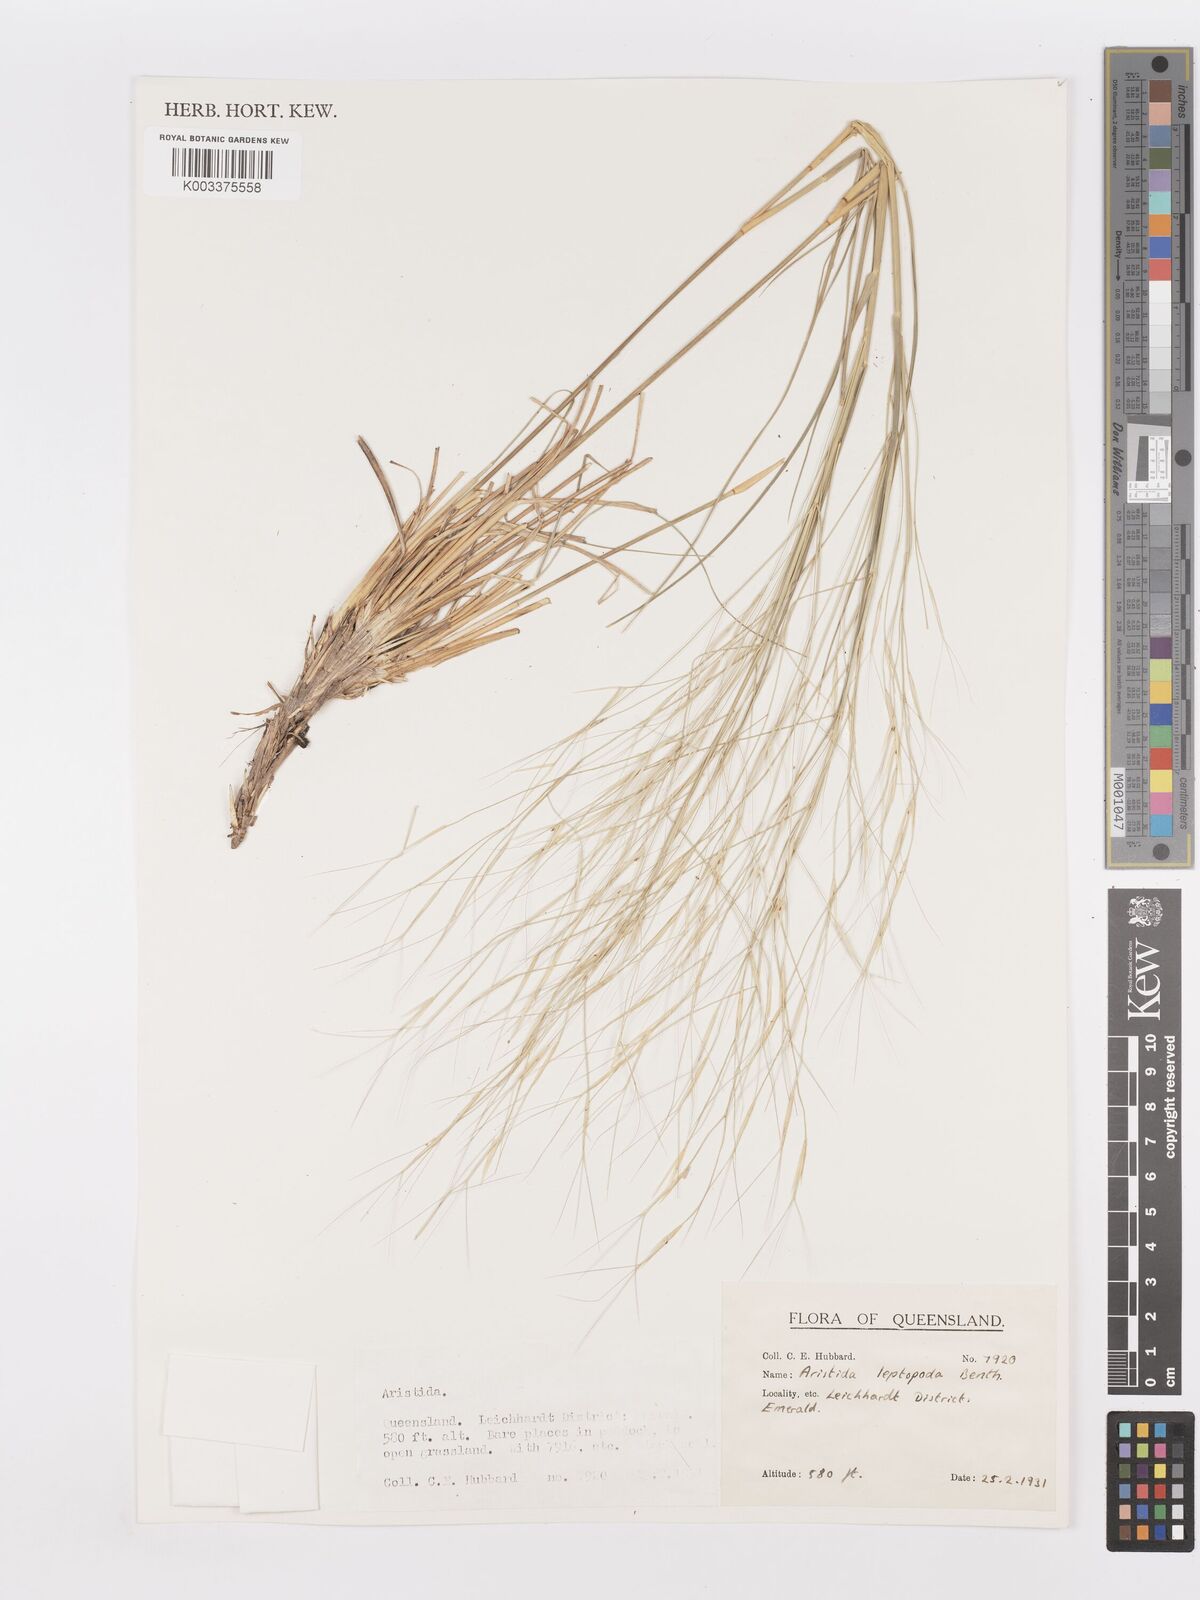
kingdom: Plantae
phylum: Tracheophyta
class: Liliopsida
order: Poales
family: Poaceae
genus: Aristida
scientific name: Aristida leptopoda
